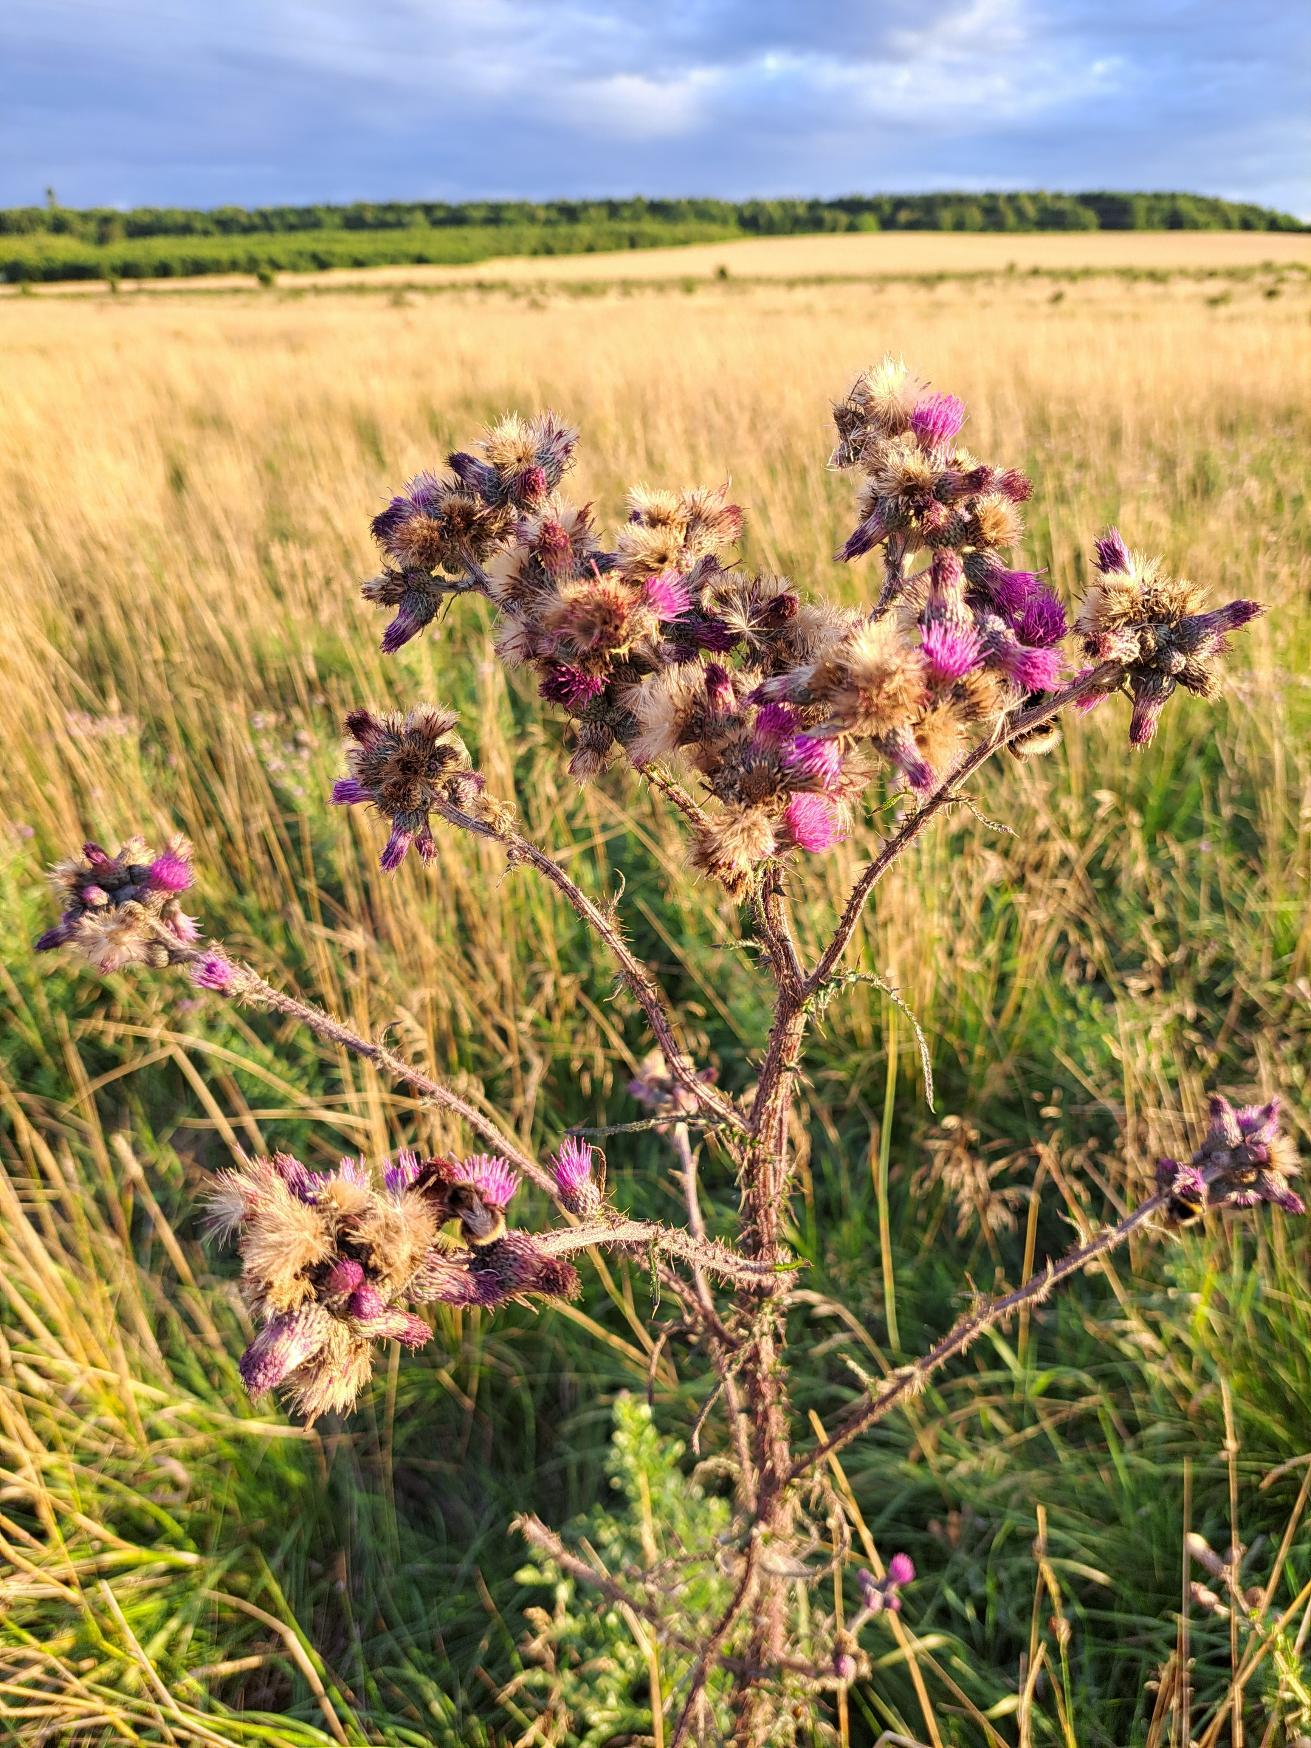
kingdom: Plantae
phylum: Tracheophyta
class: Magnoliopsida
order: Asterales
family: Asteraceae
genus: Cirsium
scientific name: Cirsium palustre
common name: Kær-tidsel
